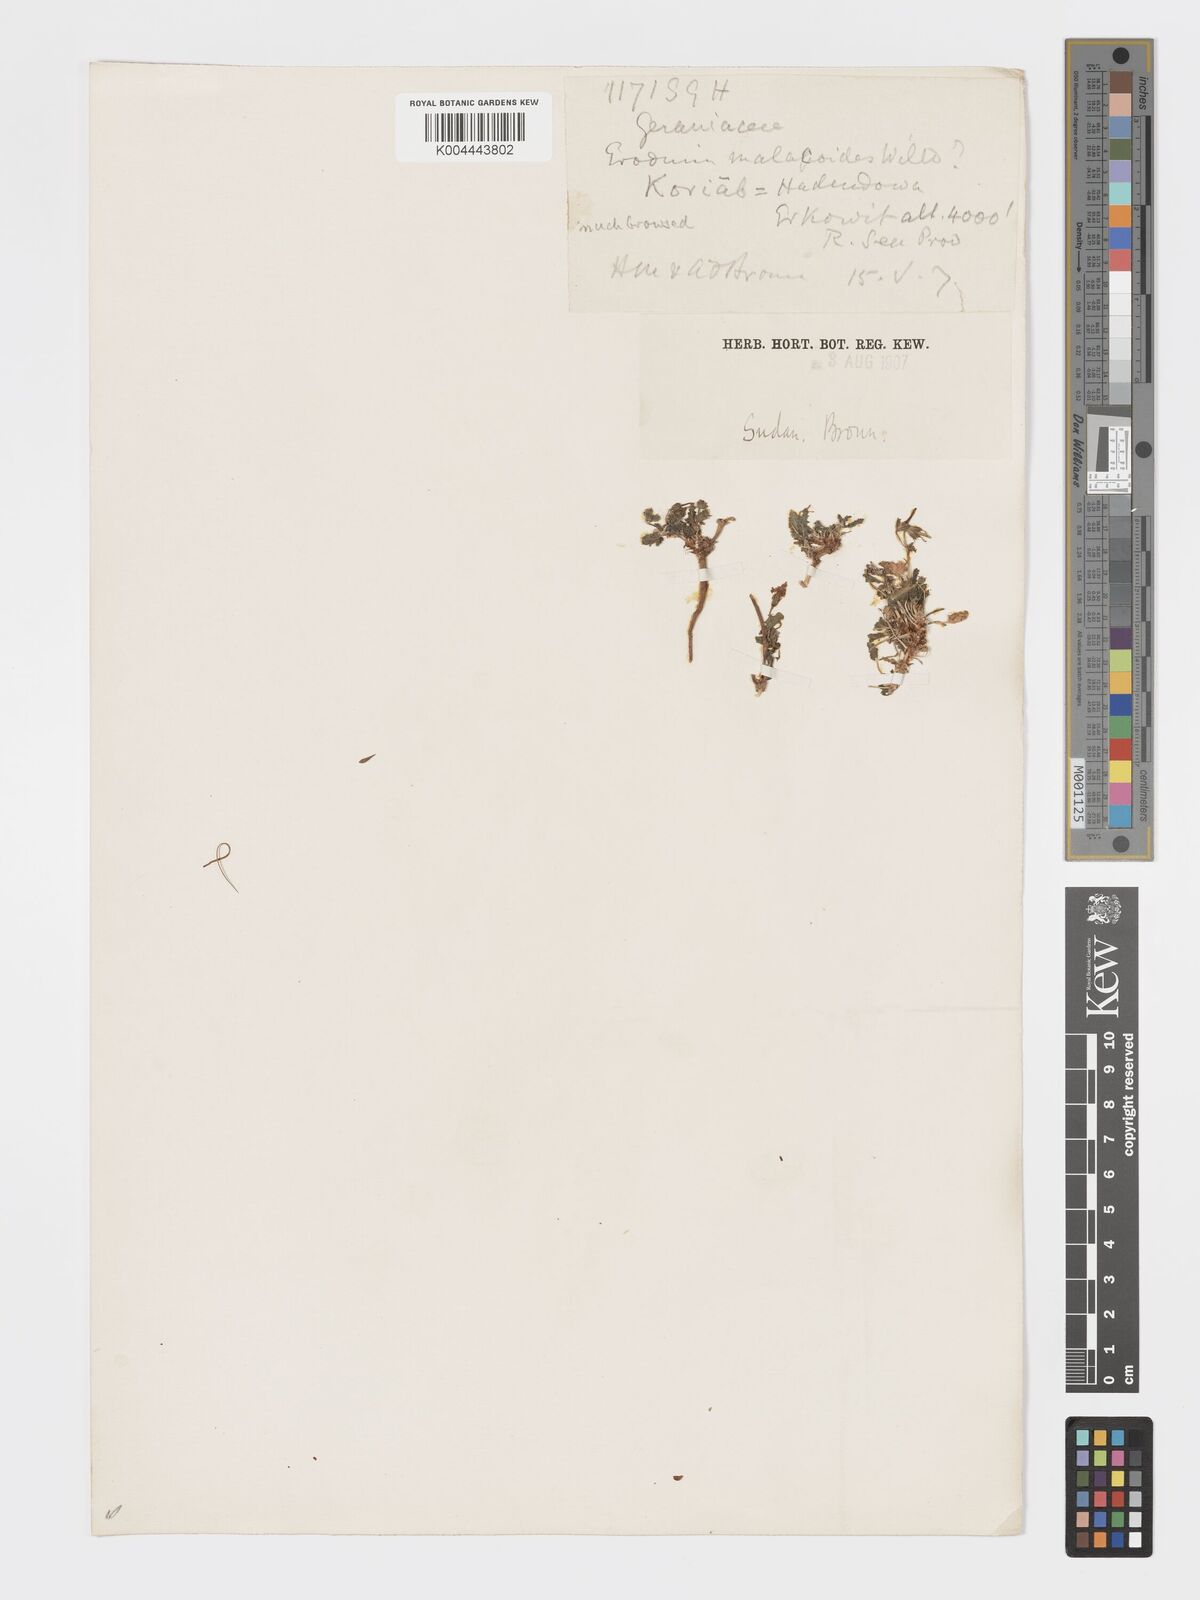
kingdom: Plantae
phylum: Tracheophyta
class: Magnoliopsida
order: Geraniales
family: Geraniaceae
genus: Erodium
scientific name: Erodium
